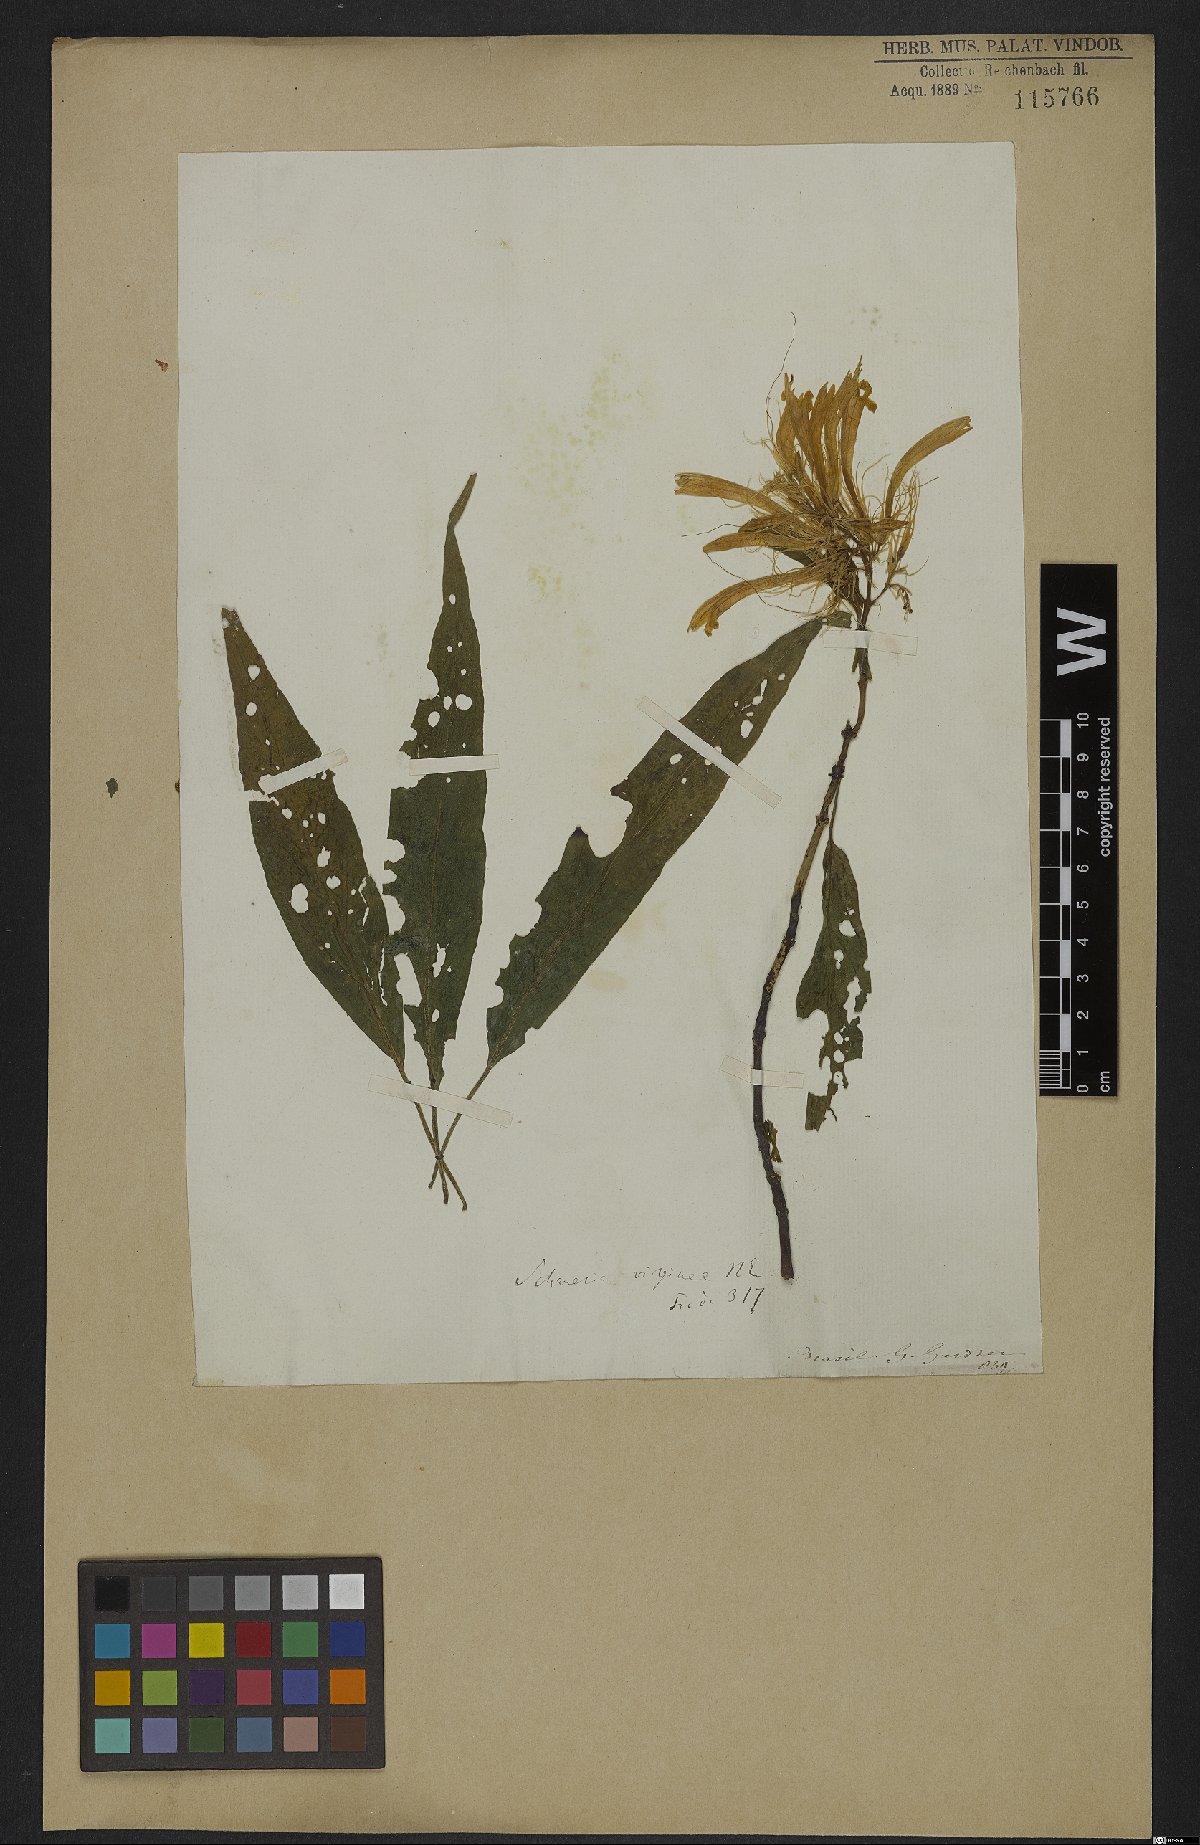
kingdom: Plantae
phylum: Tracheophyta
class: Magnoliopsida
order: Lamiales
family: Acanthaceae
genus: Schaueria
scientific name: Schaueria litoralis
